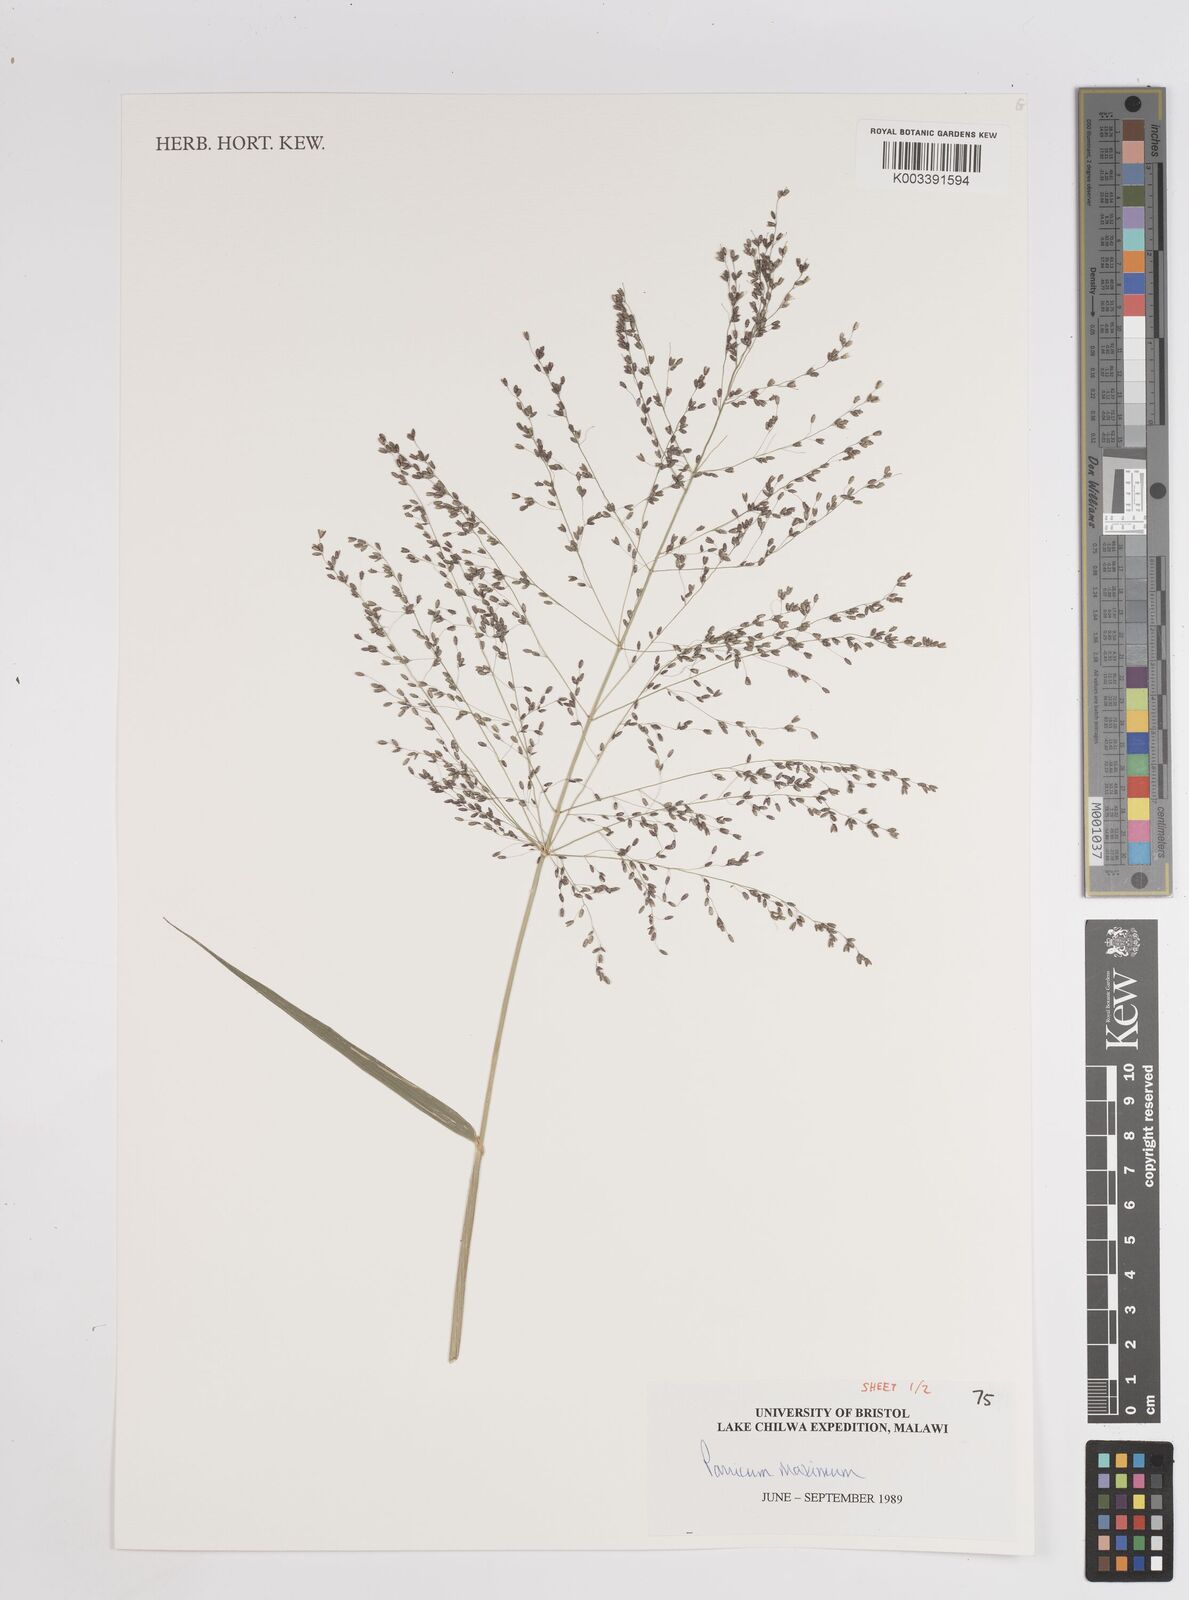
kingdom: Plantae
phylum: Tracheophyta
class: Liliopsida
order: Poales
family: Poaceae
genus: Megathyrsus
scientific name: Megathyrsus maximus
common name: Guineagrass
